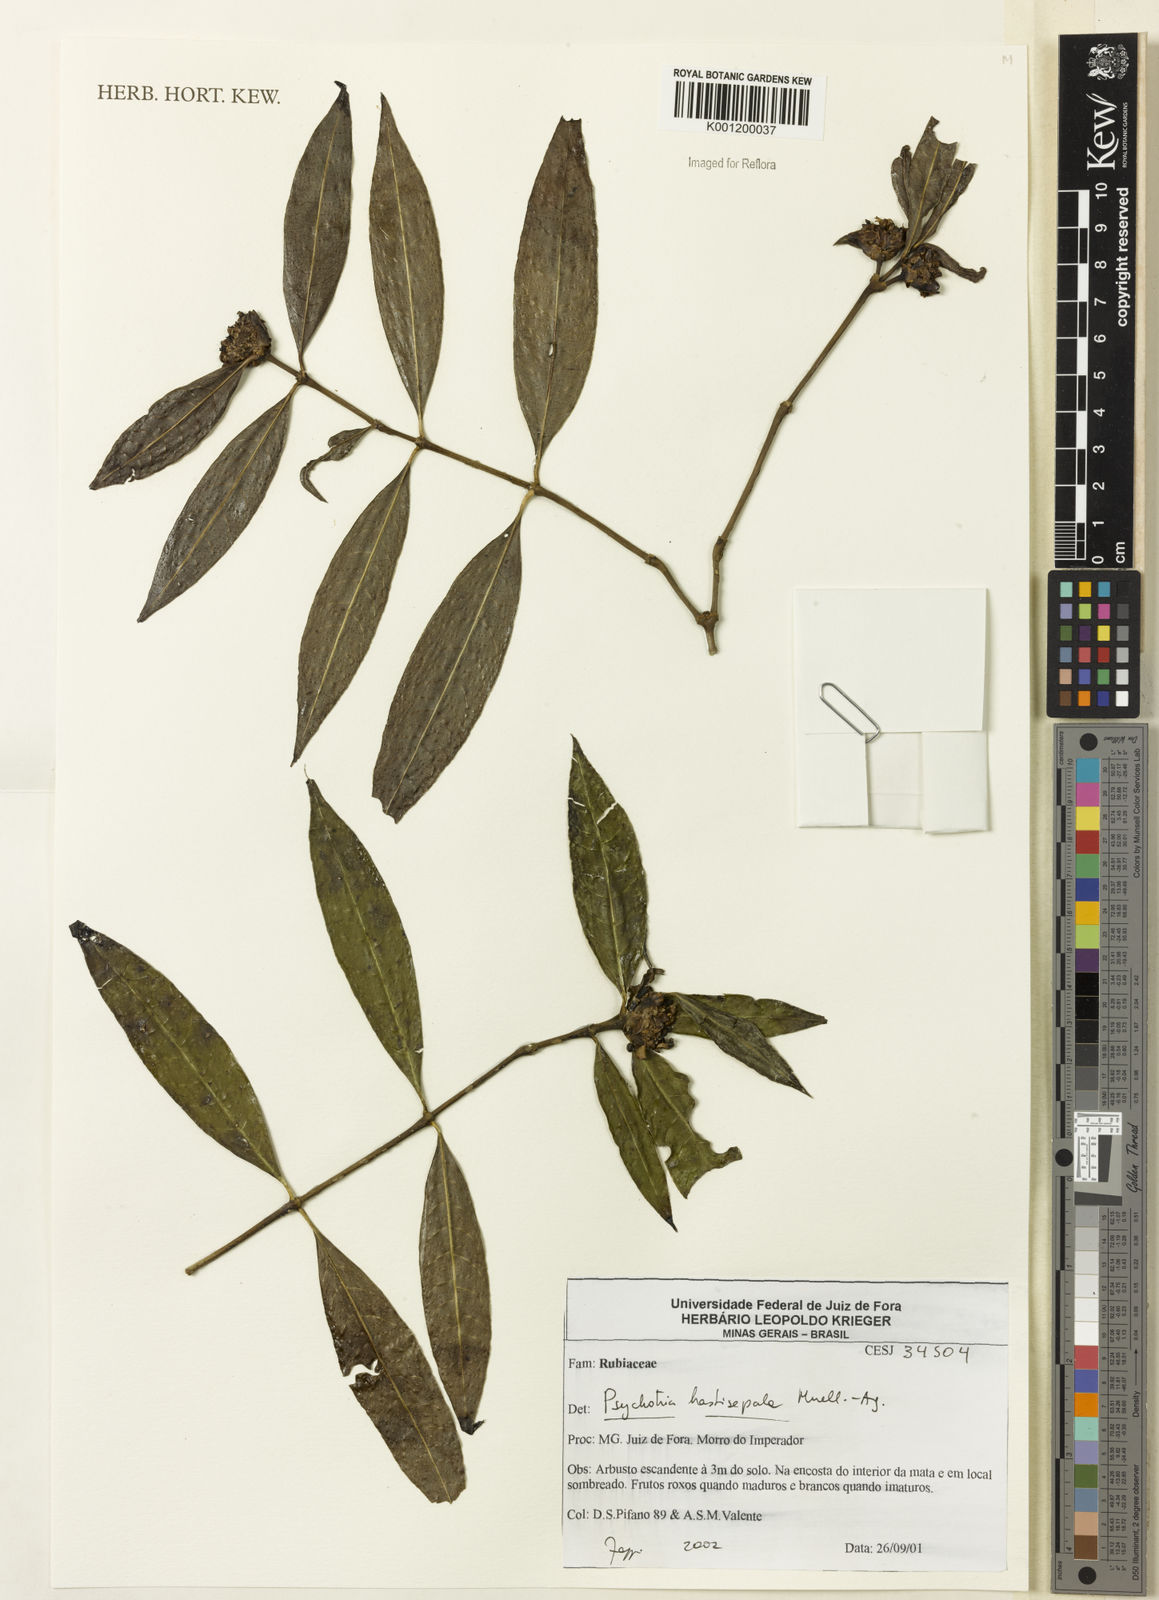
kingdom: Plantae
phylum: Tracheophyta
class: Magnoliopsida
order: Gentianales
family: Rubiaceae
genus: Psychotria
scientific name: Psychotria
